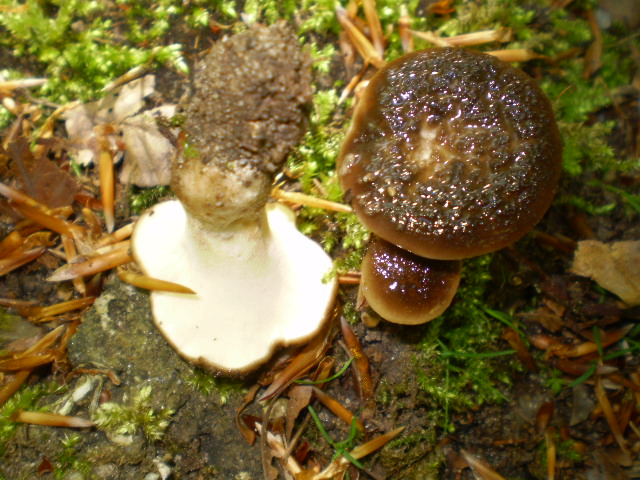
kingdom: Fungi
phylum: Basidiomycota
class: Agaricomycetes
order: Polyporales
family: Polyporaceae
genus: Polyporus
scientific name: Polyporus tuberaster
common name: knoldet stilkporesvamp
